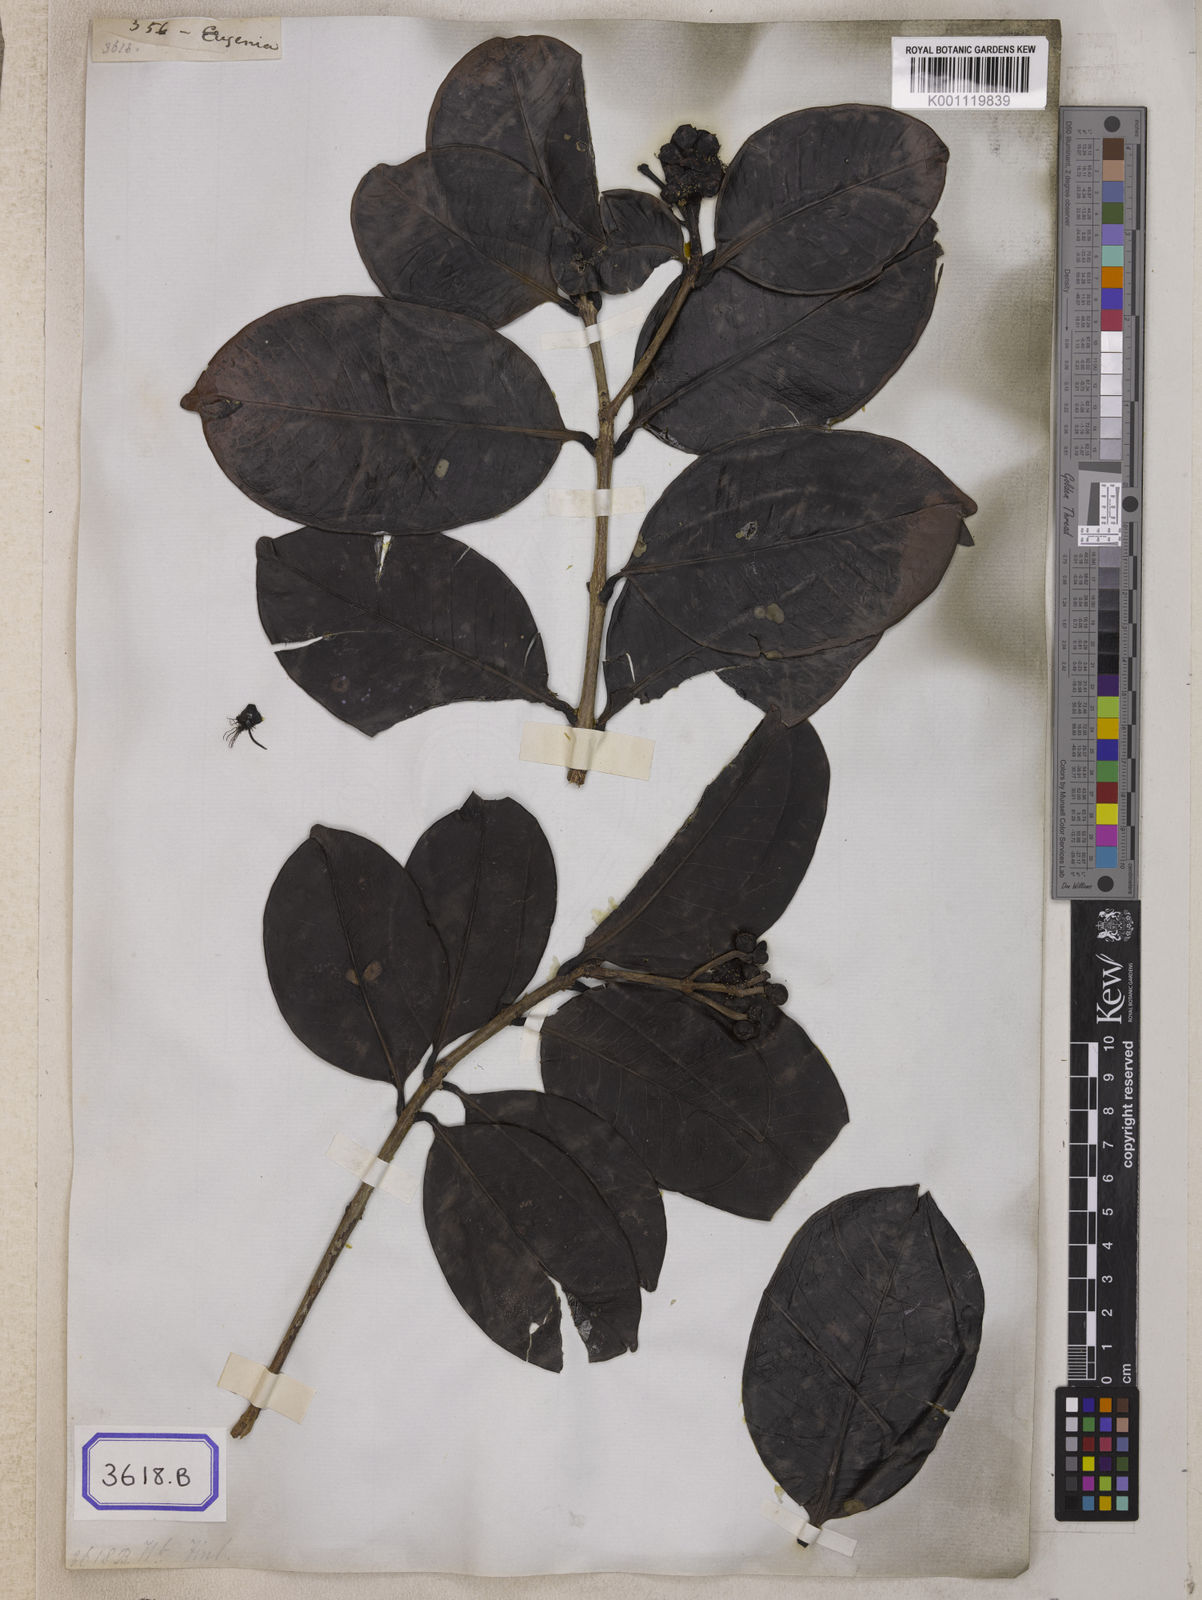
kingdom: Plantae
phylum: Tracheophyta
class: Magnoliopsida
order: Myrtales
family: Myrtaceae
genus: Eugenia
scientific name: Eugenia
